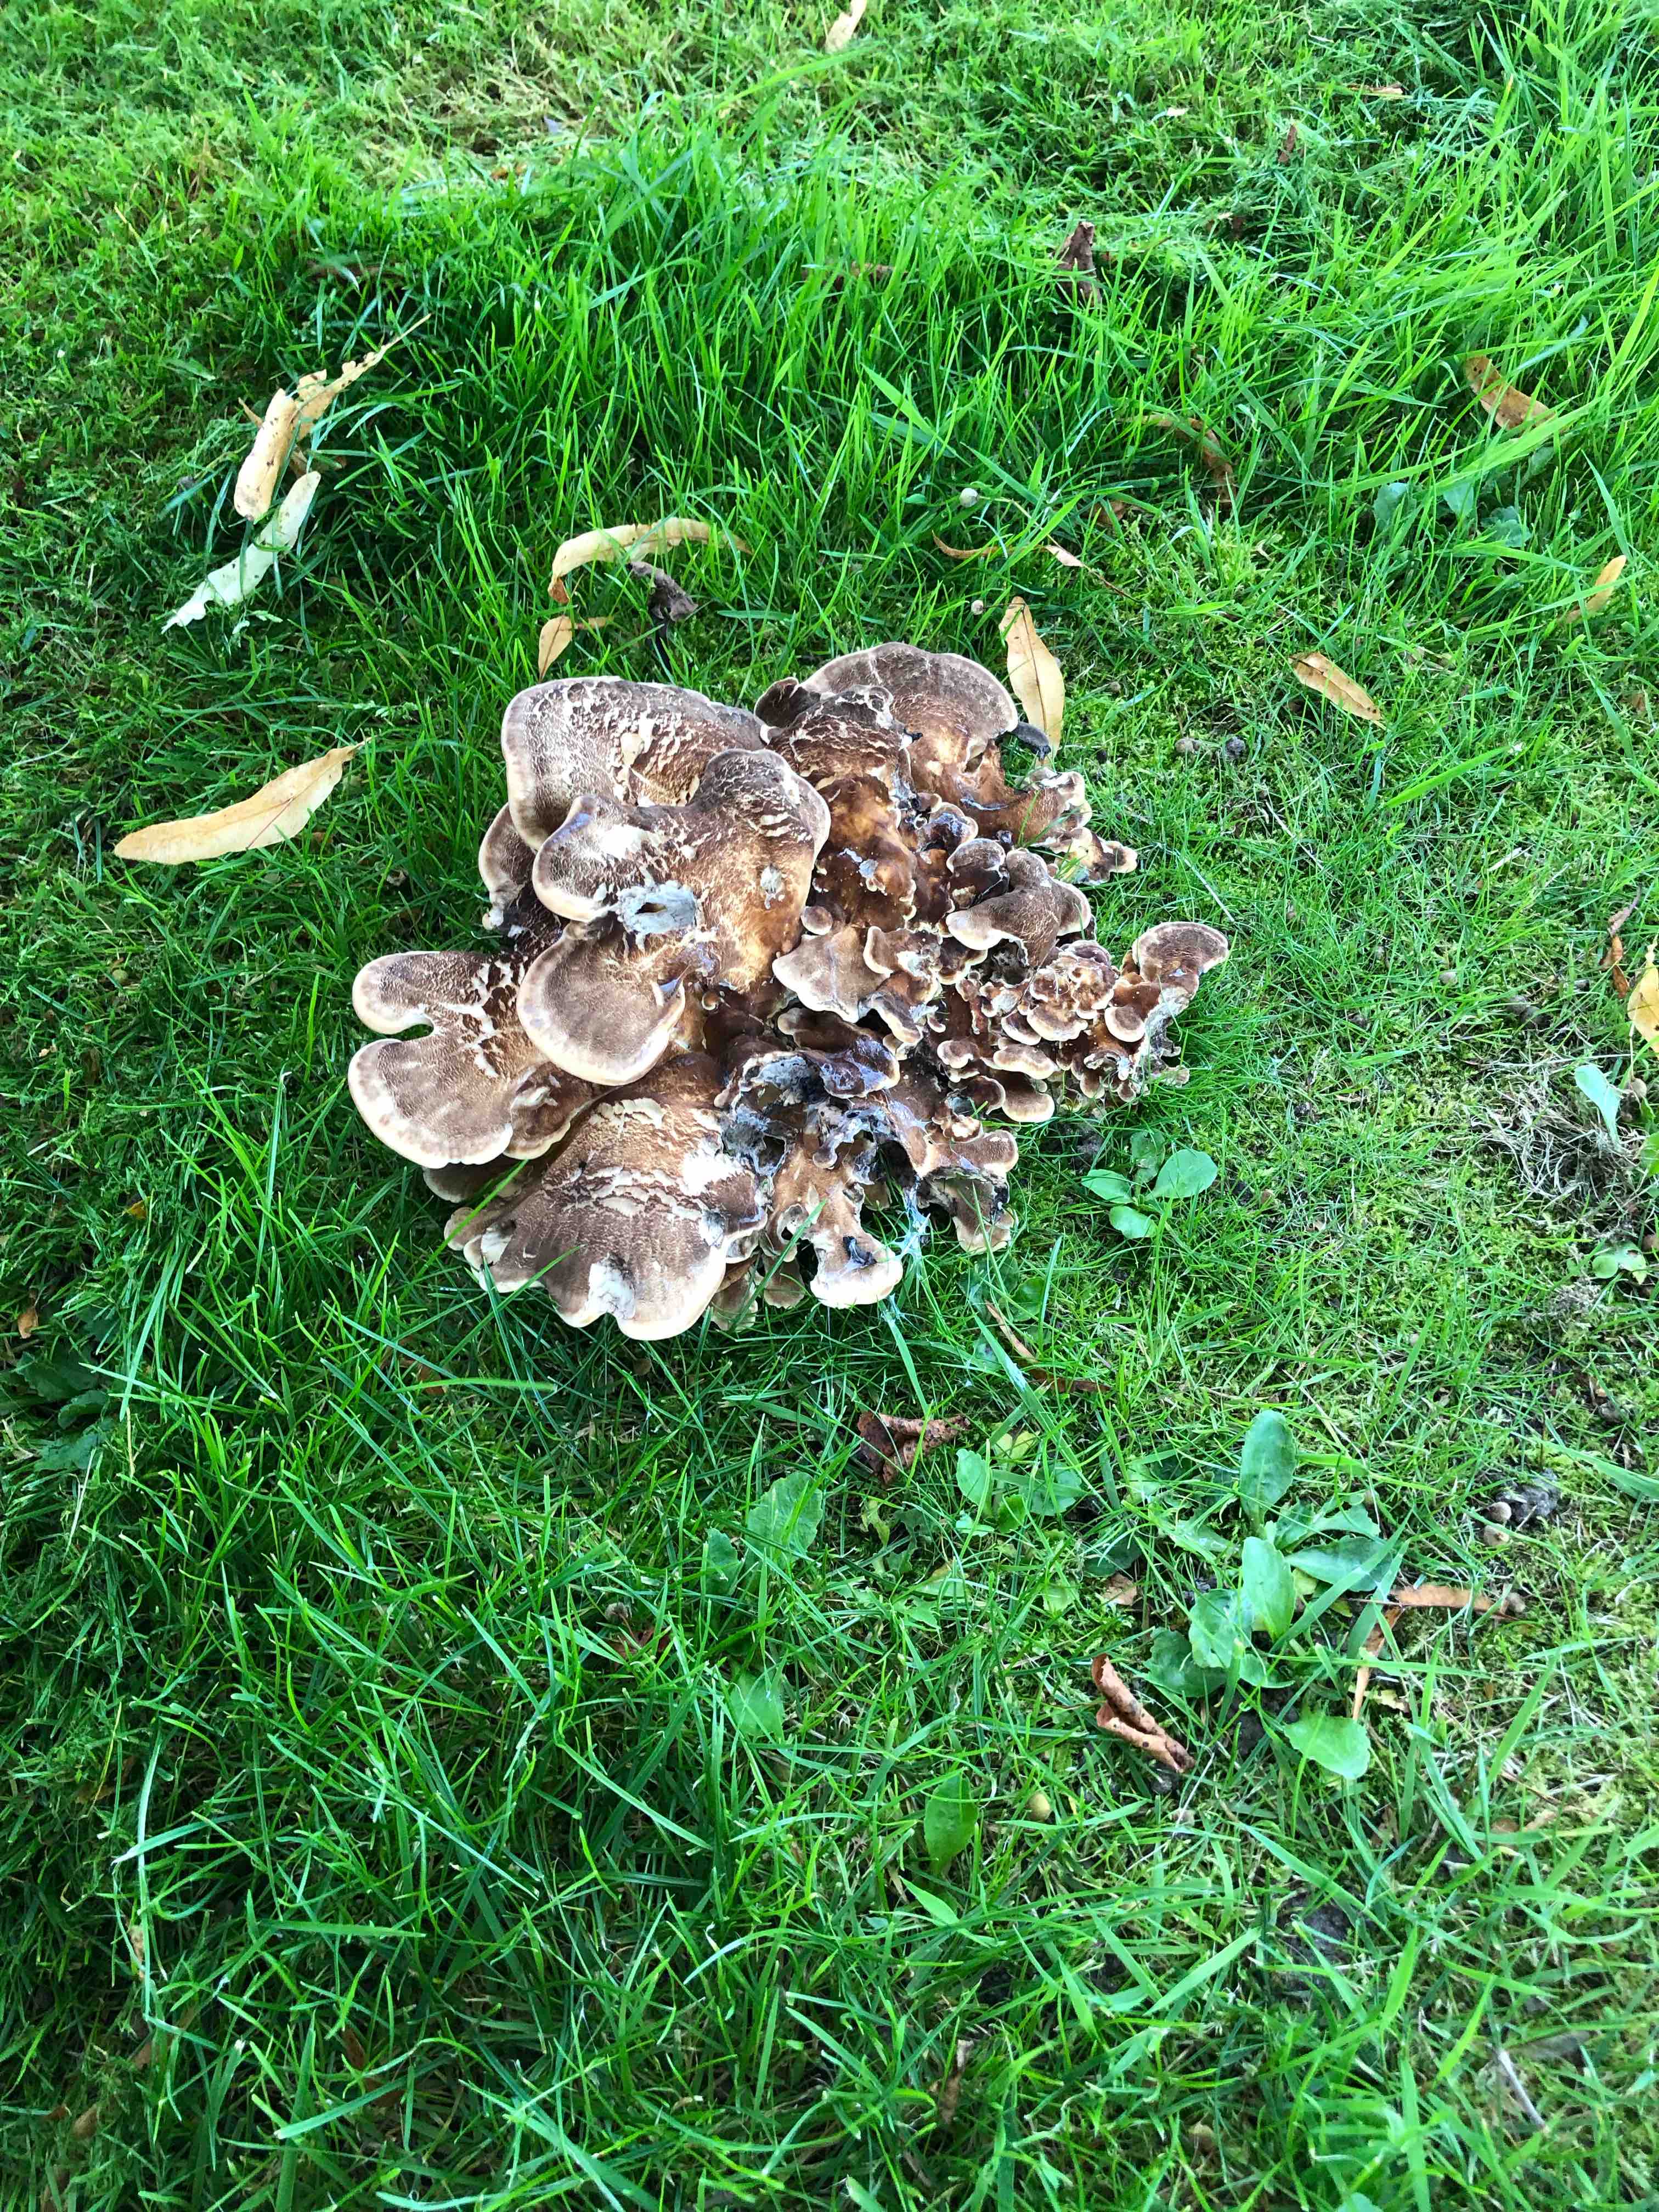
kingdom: Fungi
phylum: Basidiomycota
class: Agaricomycetes
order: Polyporales
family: Meripilaceae
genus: Meripilus
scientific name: Meripilus giganteus
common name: kæmpeporesvamp
